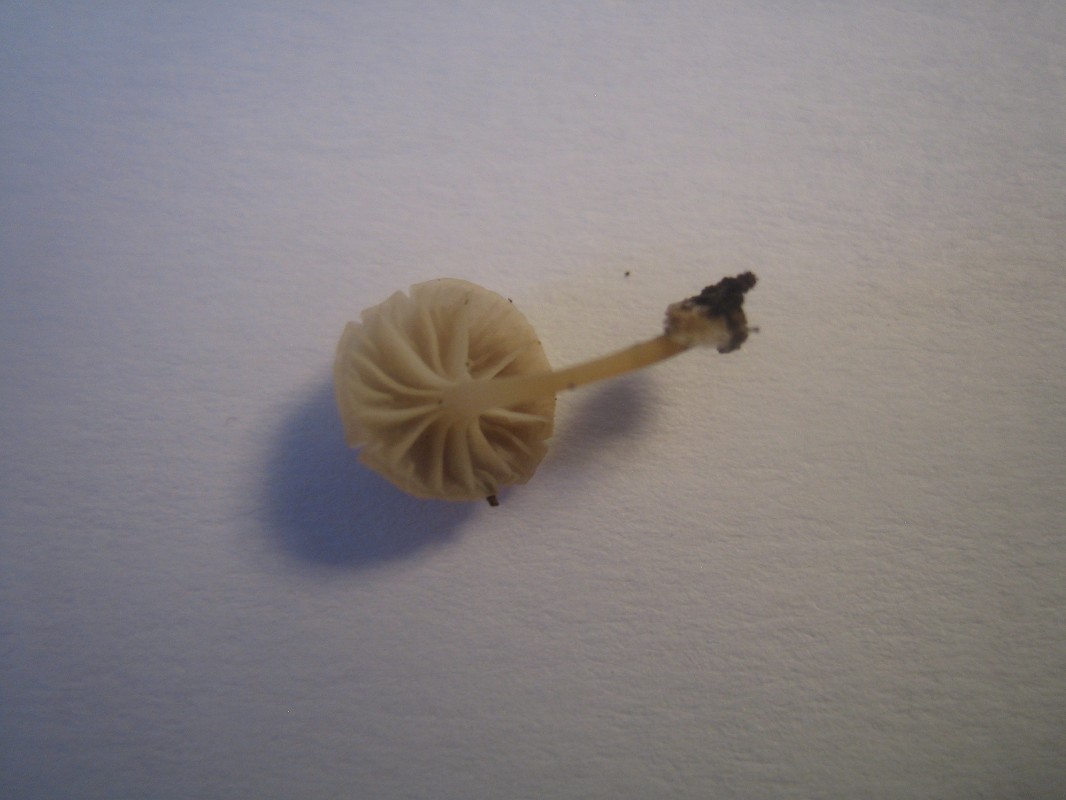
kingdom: Fungi
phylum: Basidiomycota
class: Agaricomycetes
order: Agaricales
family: Porotheleaceae
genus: Phloeomana
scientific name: Phloeomana speirea
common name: kvist-huesvamp
